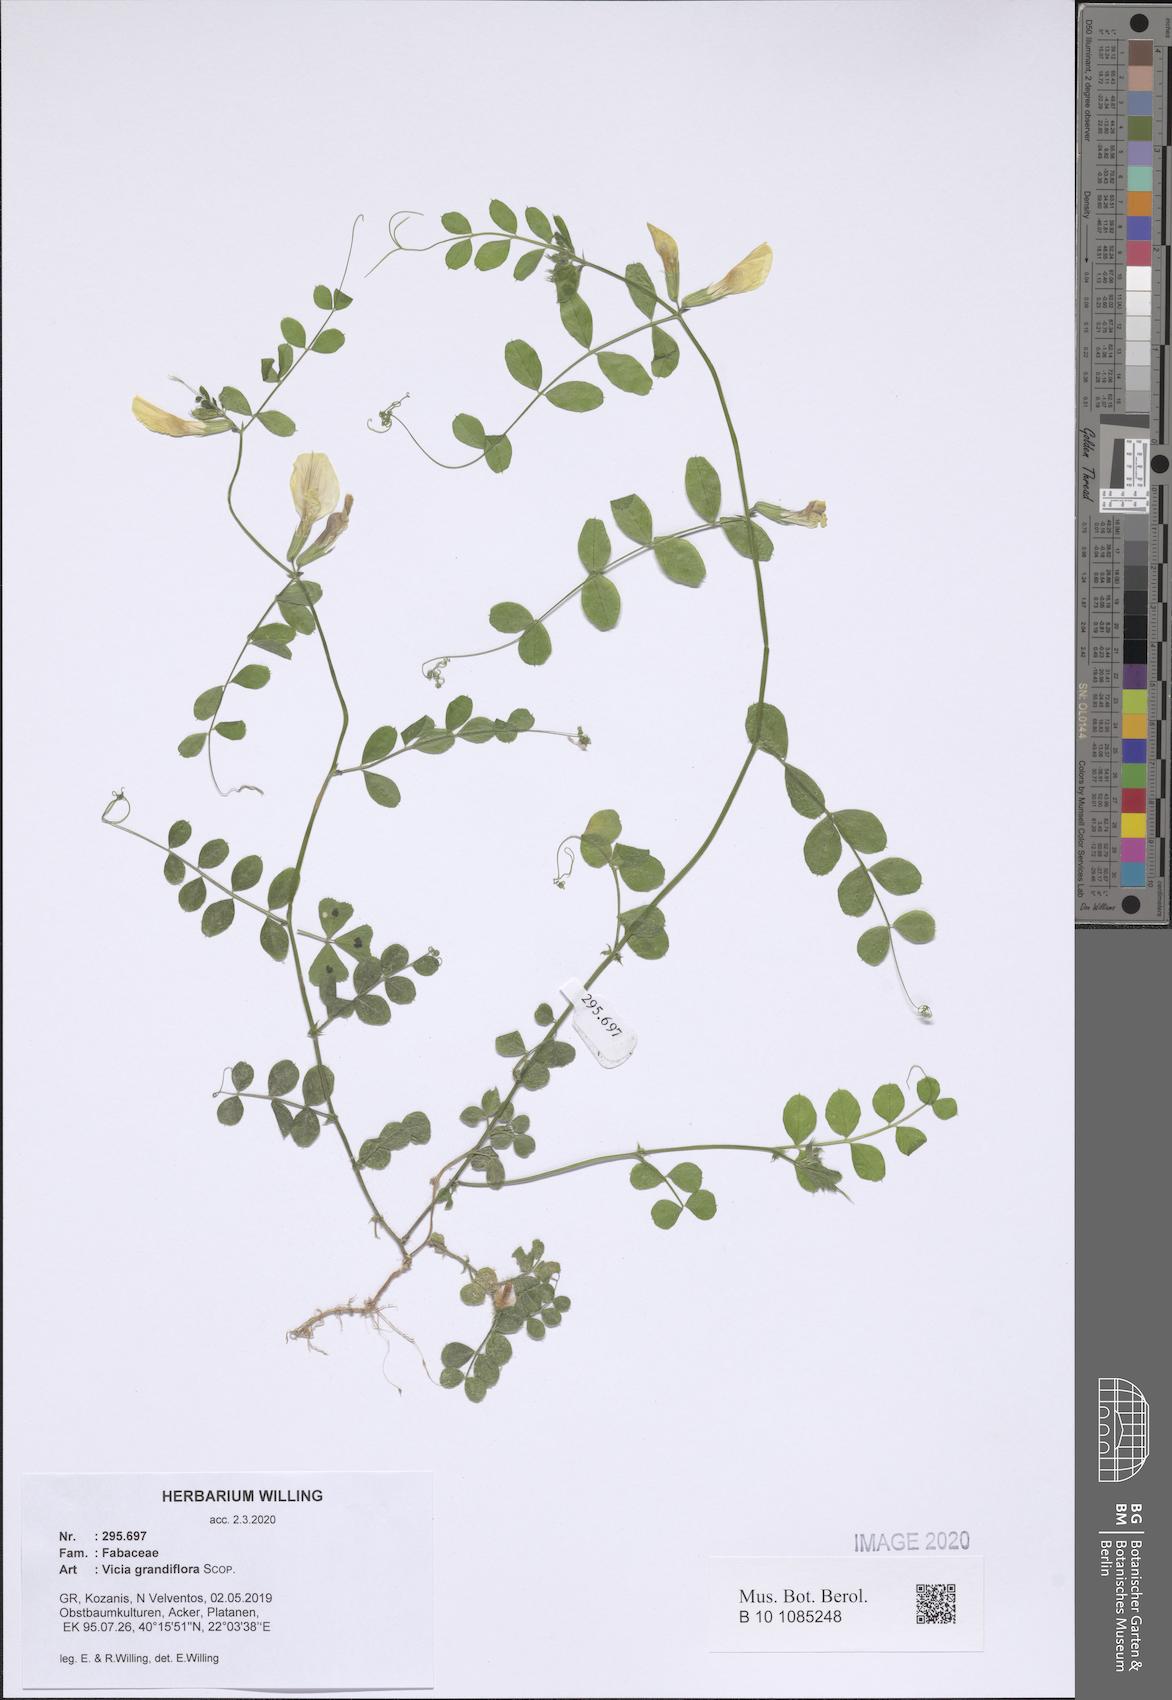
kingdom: Plantae
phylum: Tracheophyta
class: Magnoliopsida
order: Fabales
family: Fabaceae
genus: Vicia
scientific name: Vicia grandiflora
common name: Large yellow vetch
